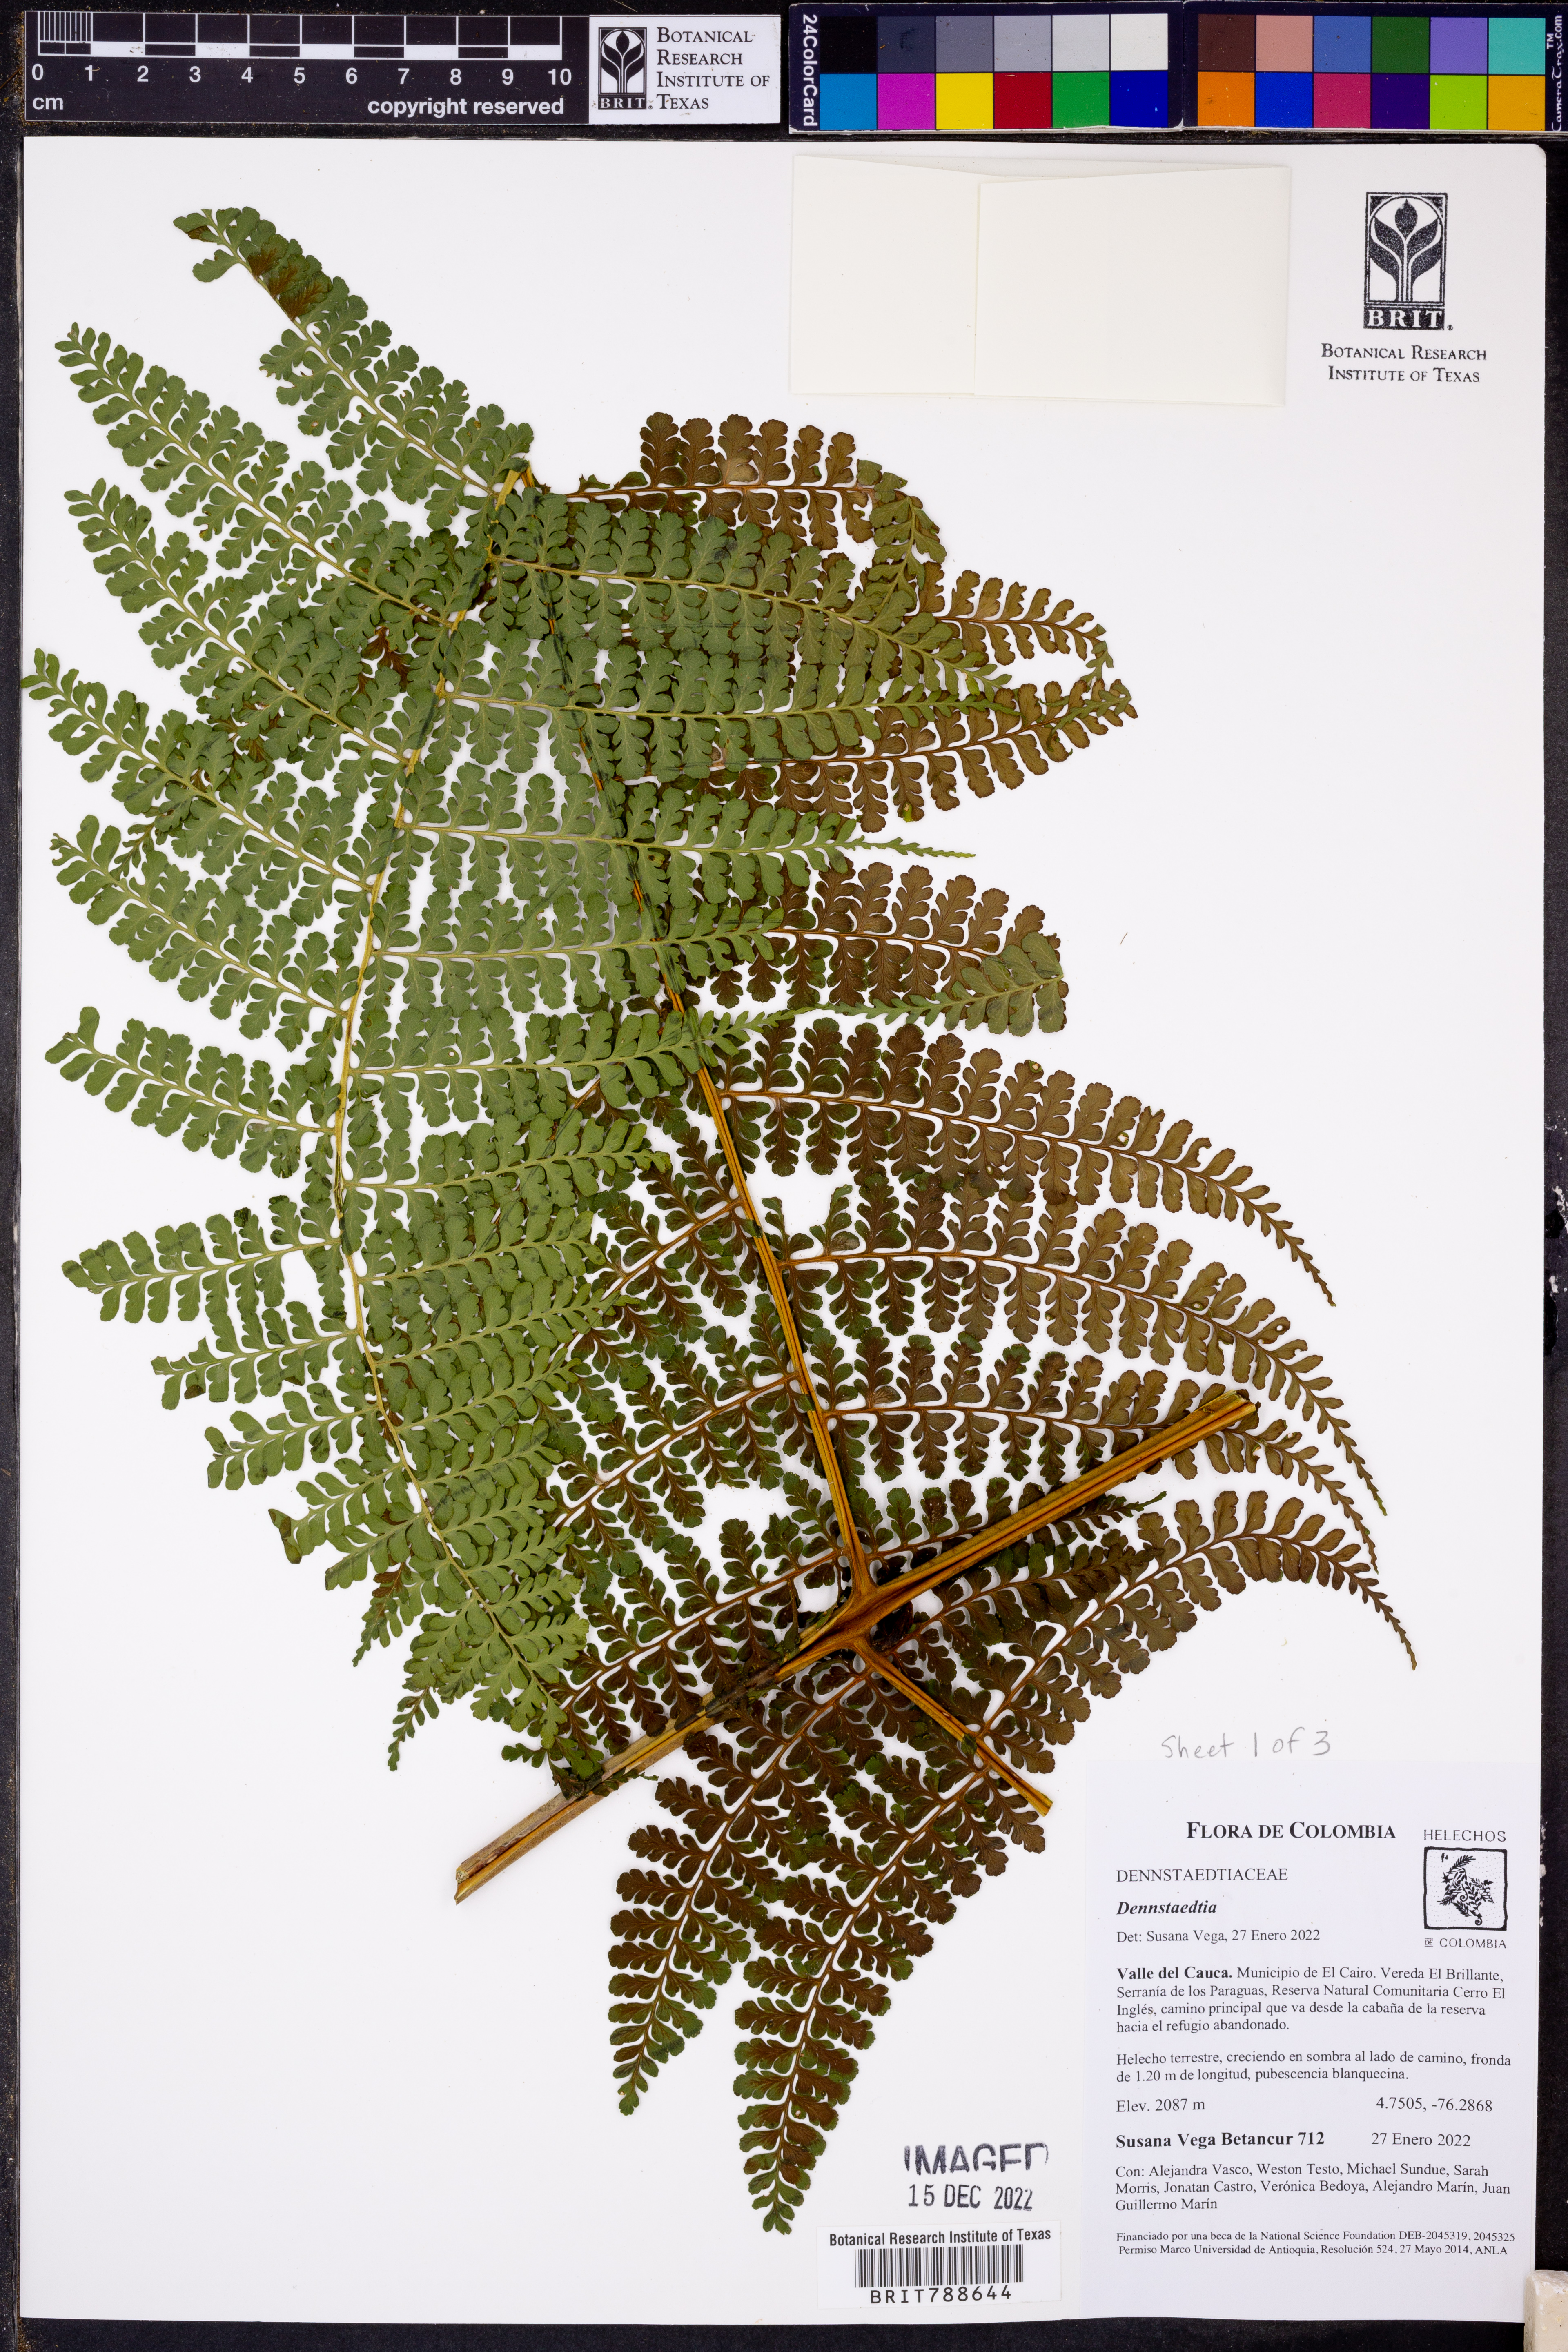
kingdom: Plantae
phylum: Tracheophyta
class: Polypodiopsida
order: Polypodiales
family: Dennstaedtiaceae
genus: Dennstaedtia
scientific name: Dennstaedtia cornuta
